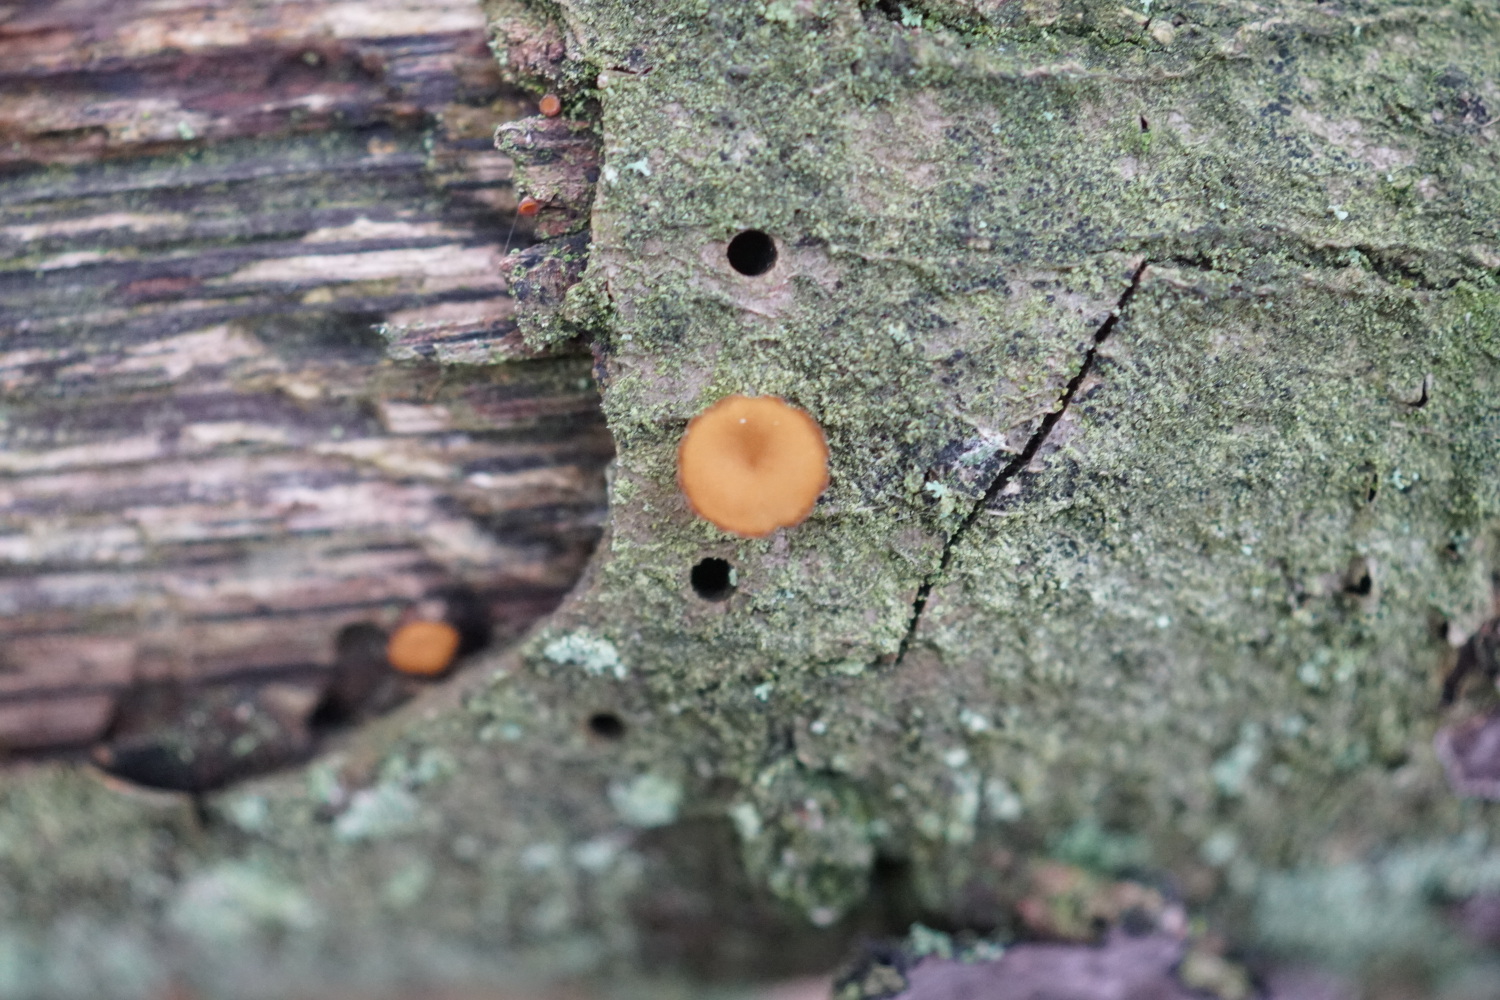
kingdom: Fungi
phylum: Ascomycota
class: Leotiomycetes
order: Helotiales
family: Rutstroemiaceae
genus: Rutstroemia
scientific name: Rutstroemia firma
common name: gren-brunskive
